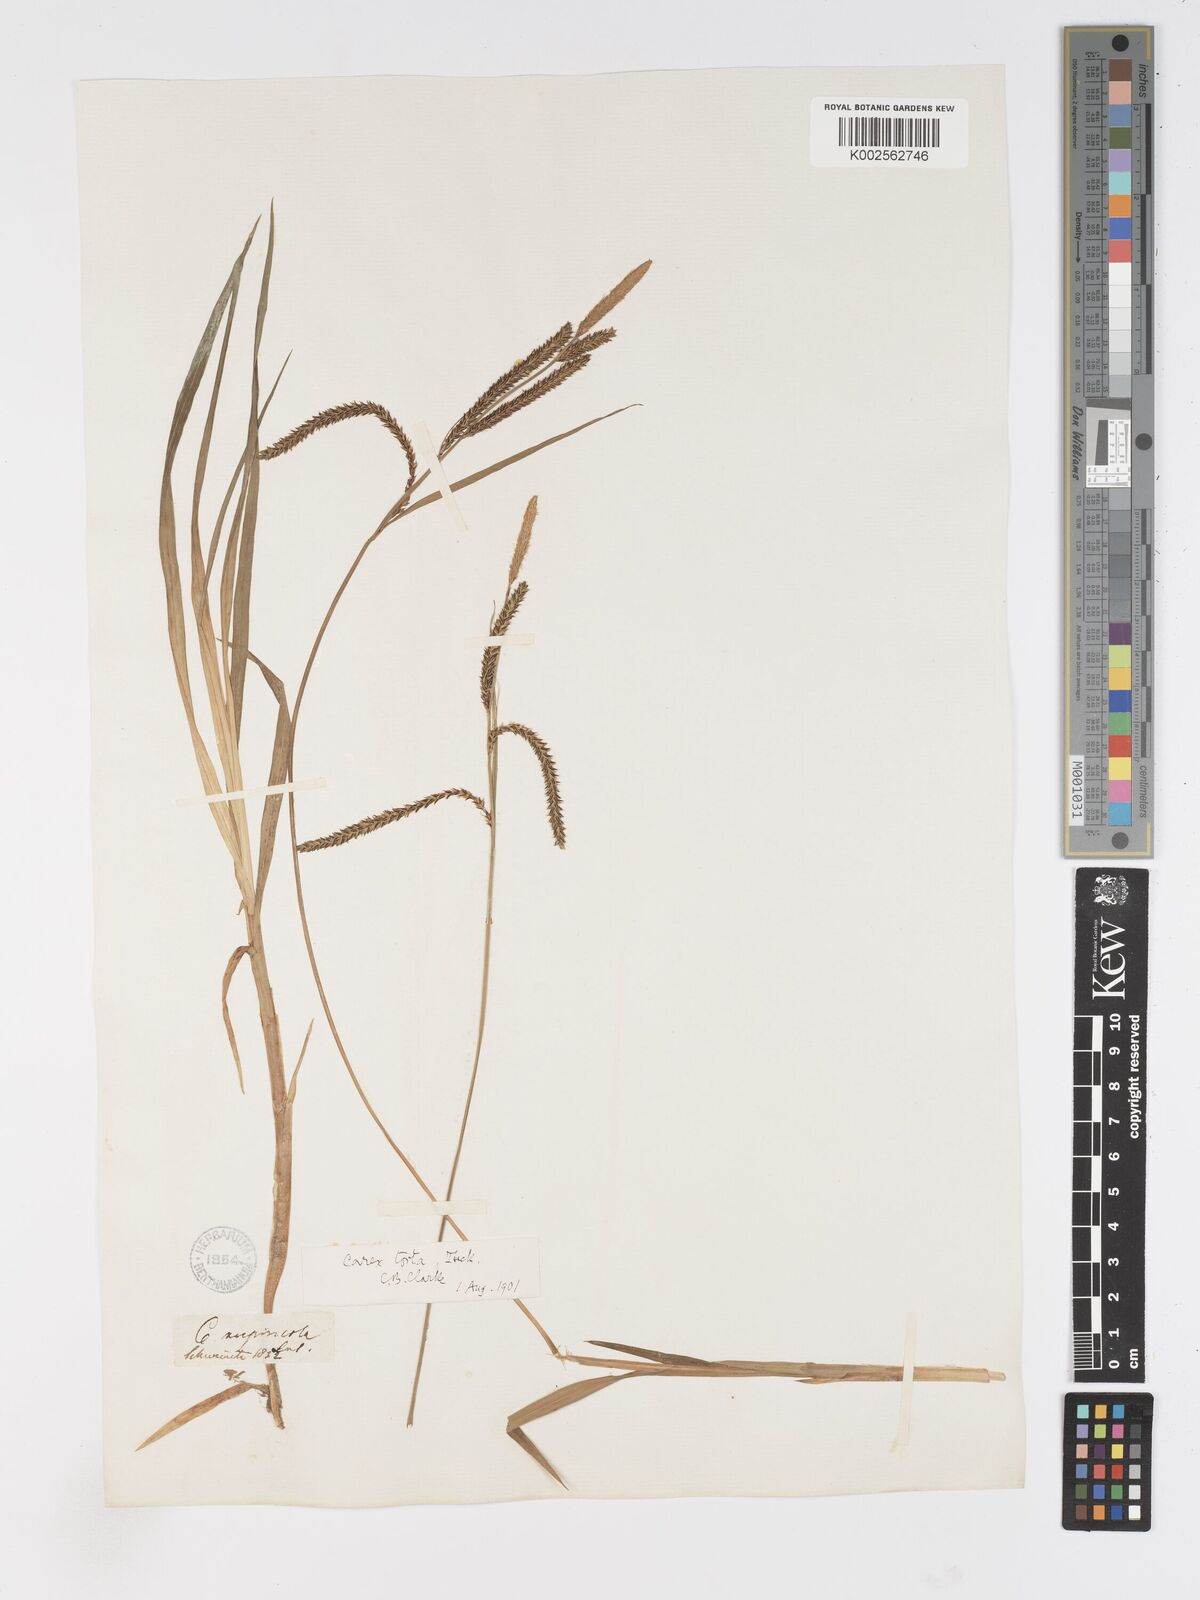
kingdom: Plantae
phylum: Tracheophyta
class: Liliopsida
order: Poales
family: Cyperaceae
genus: Carex
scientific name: Carex torta
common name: Twisted sedge
